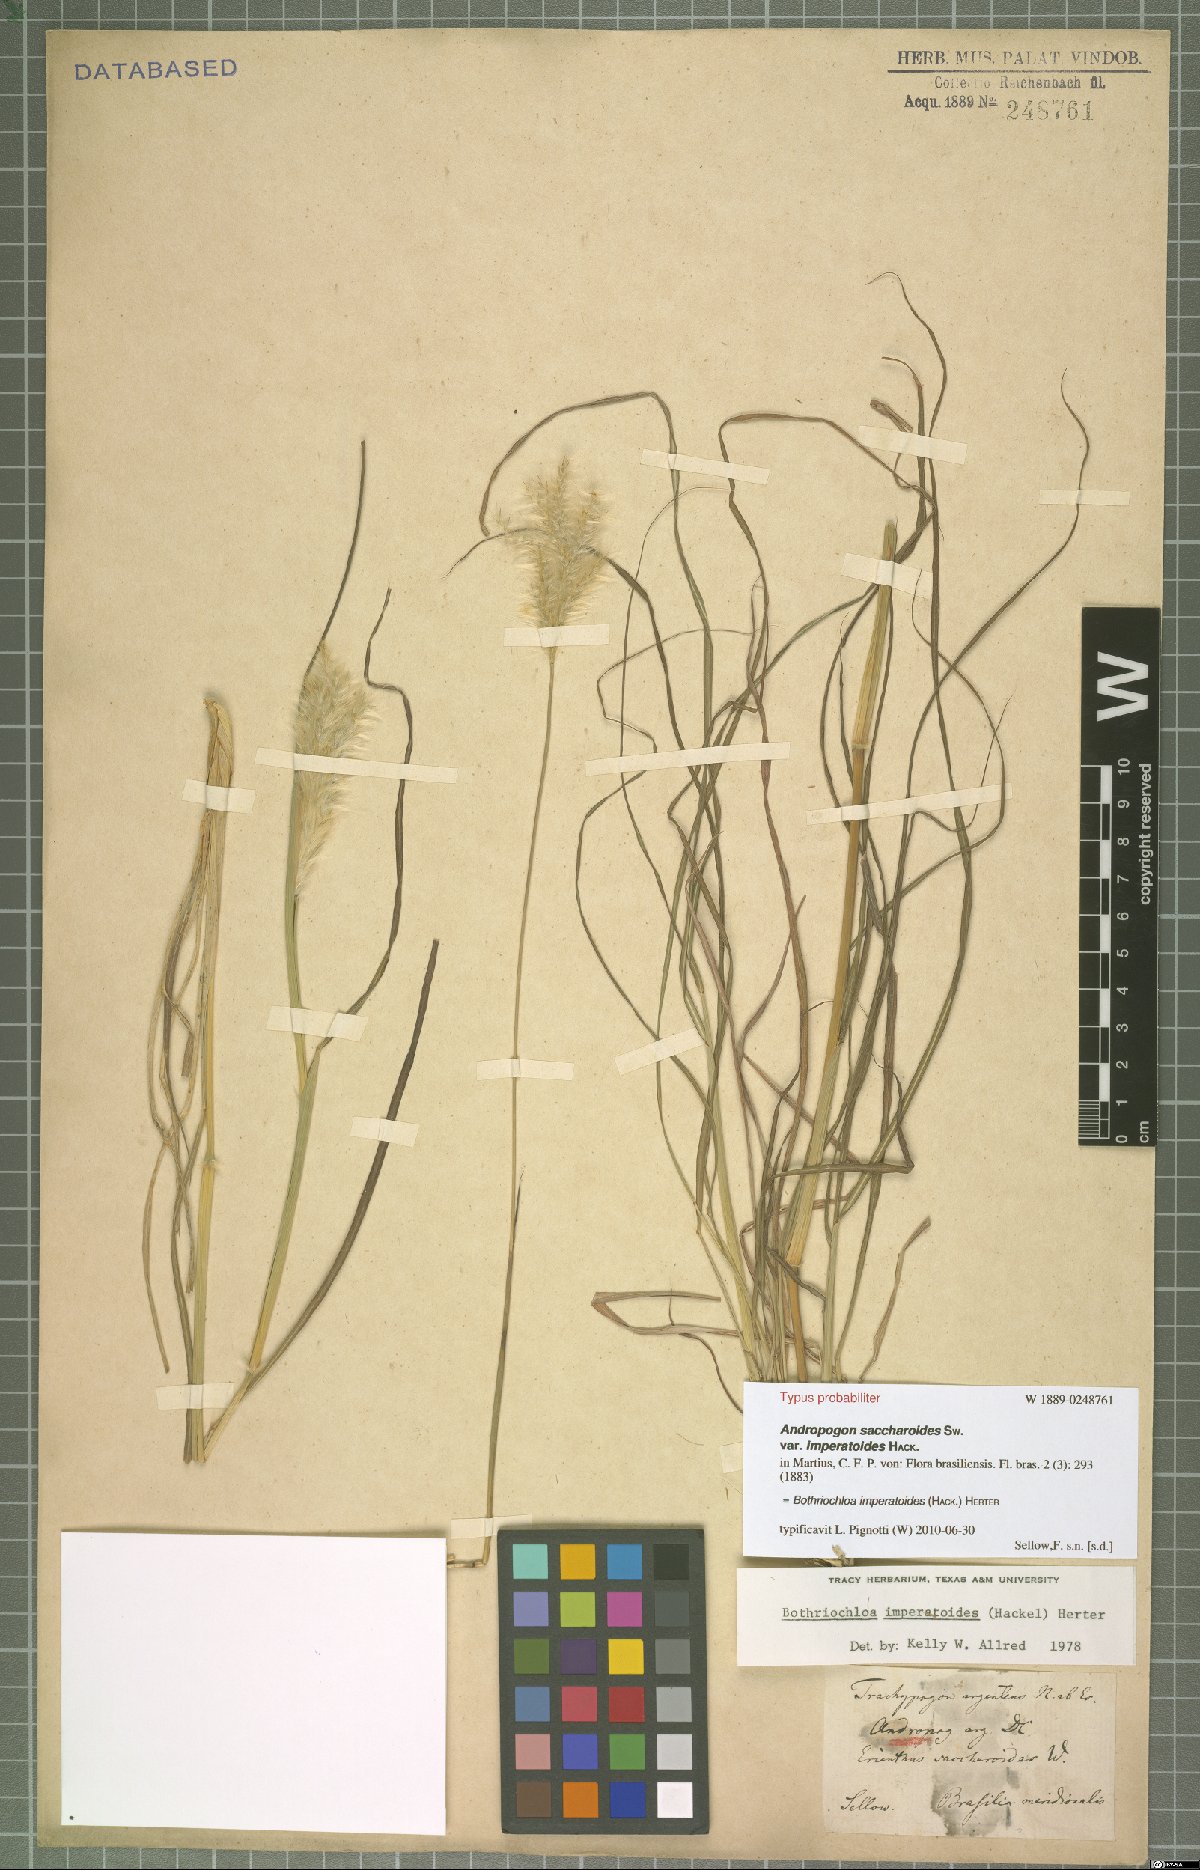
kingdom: Plantae
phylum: Tracheophyta
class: Liliopsida
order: Poales
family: Poaceae
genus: Bothriochloa
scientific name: Bothriochloa imperatoides
